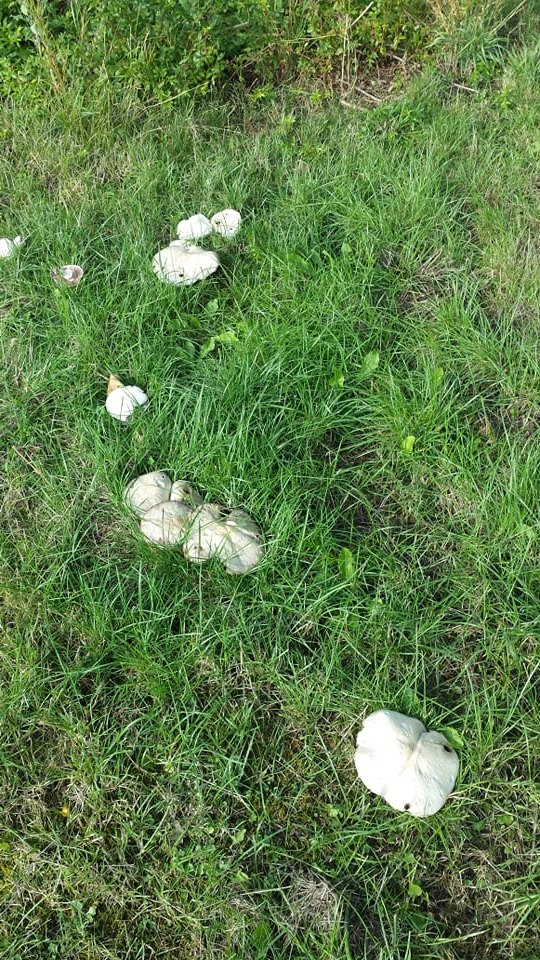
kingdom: Fungi
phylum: Basidiomycota
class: Agaricomycetes
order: Agaricales
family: Agaricaceae
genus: Agaricus
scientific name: Agaricus arvensis
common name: ager-champignon
